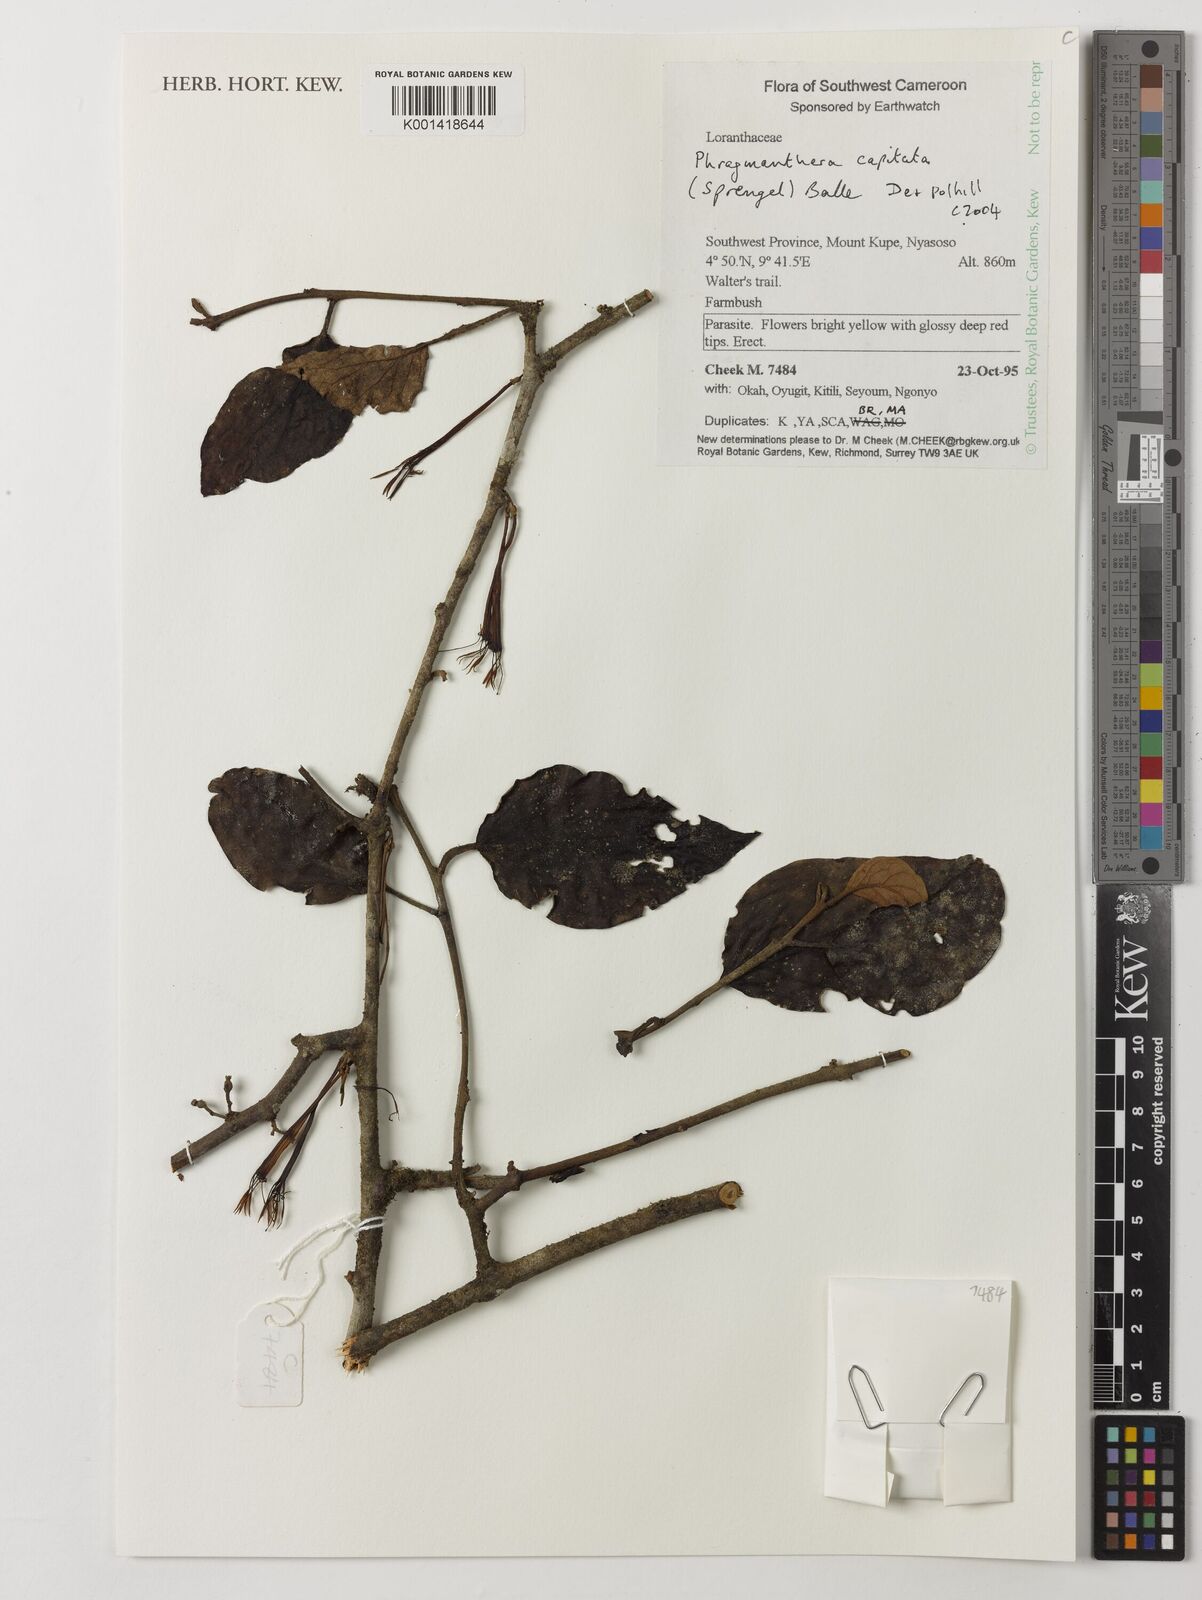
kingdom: Plantae
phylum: Tracheophyta
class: Magnoliopsida
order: Santalales
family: Loranthaceae
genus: Phragmanthera
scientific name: Phragmanthera capitata
